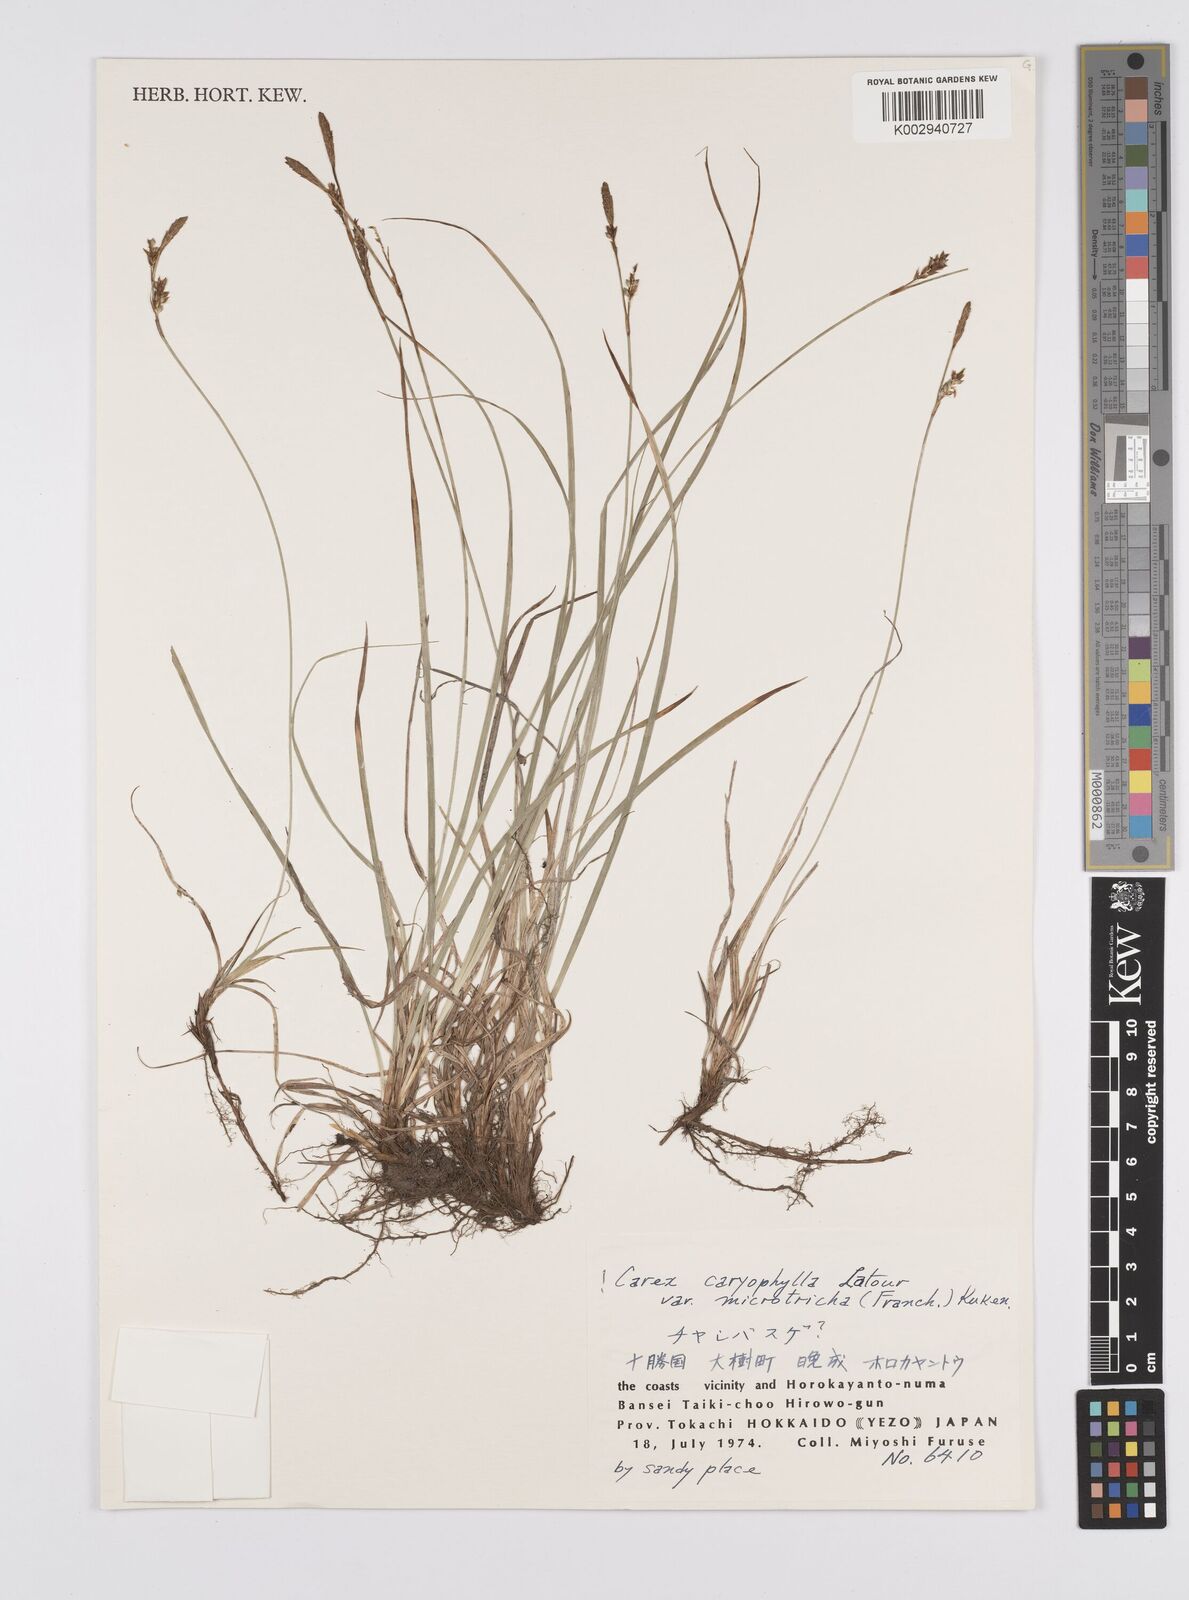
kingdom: Plantae
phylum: Tracheophyta
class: Liliopsida
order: Poales
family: Cyperaceae
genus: Carex
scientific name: Carex caryophyllea
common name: Spring sedge
